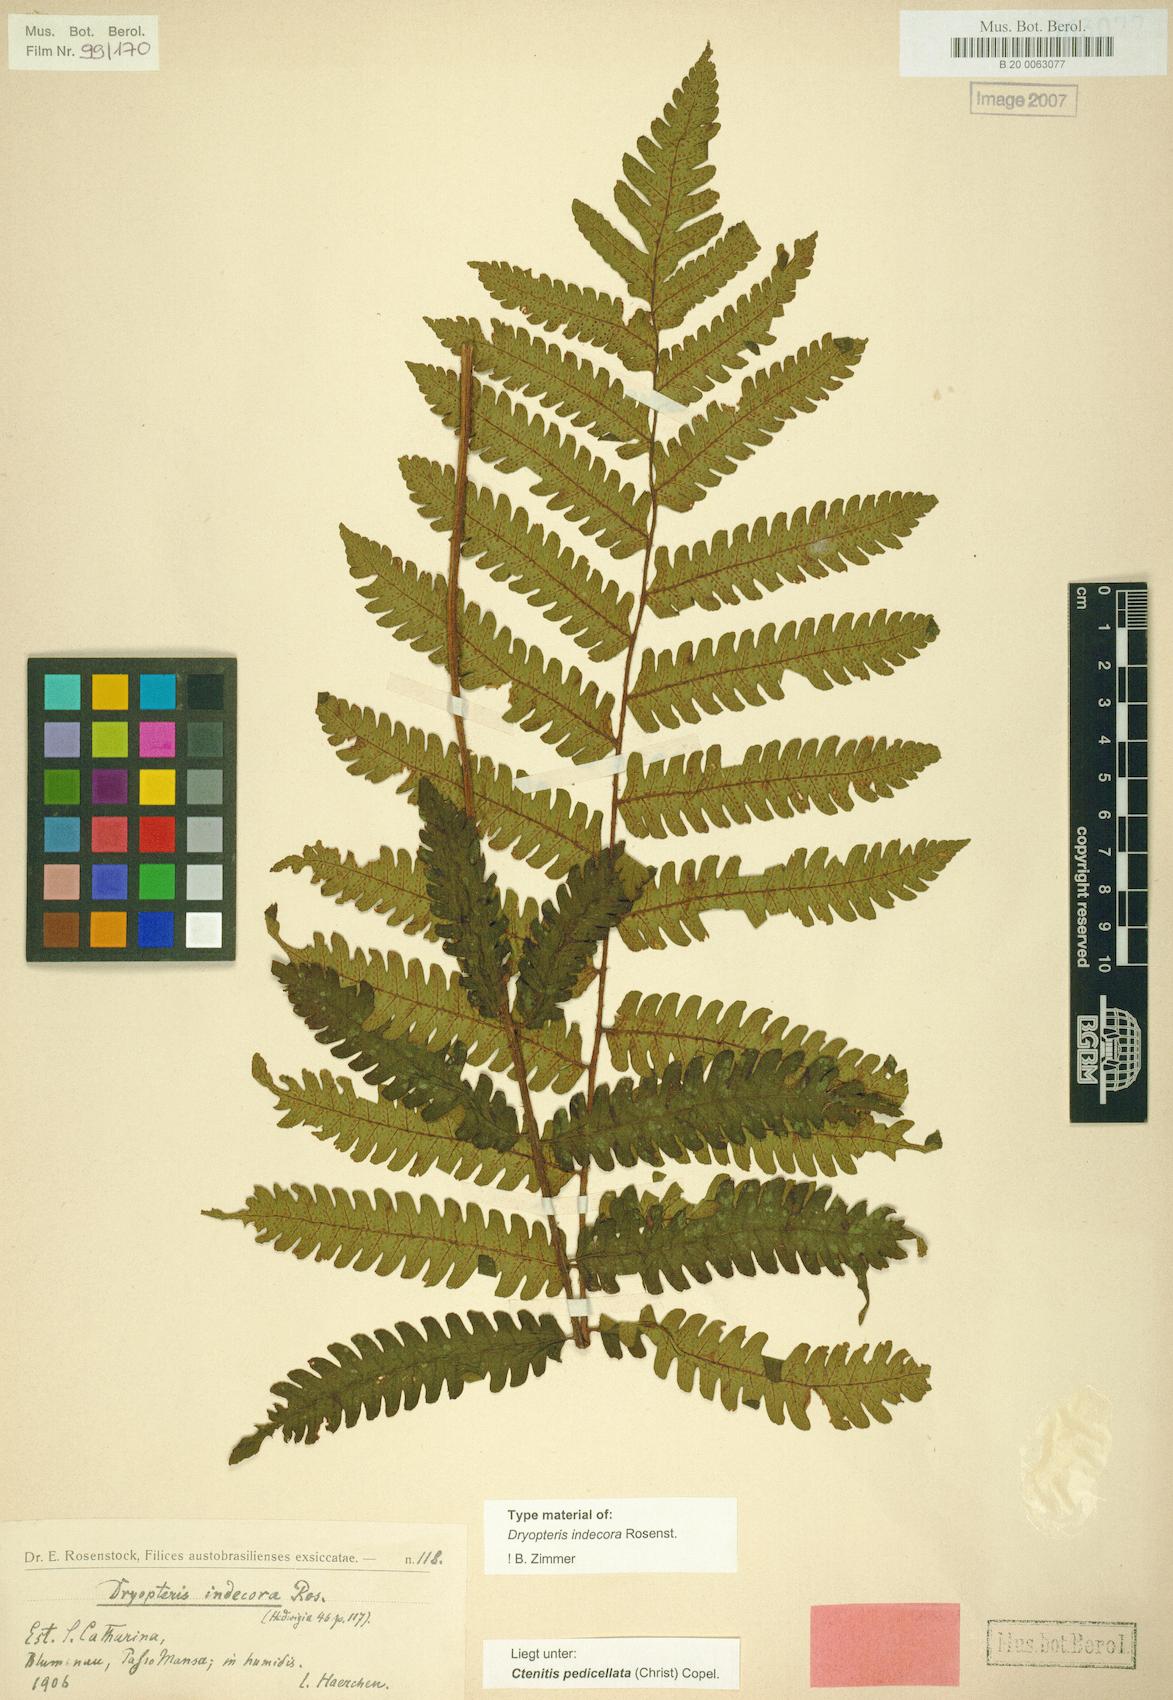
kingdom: Plantae
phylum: Tracheophyta
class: Polypodiopsida
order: Polypodiales
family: Dryopteridaceae
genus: Ctenitis
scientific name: Ctenitis nervata
